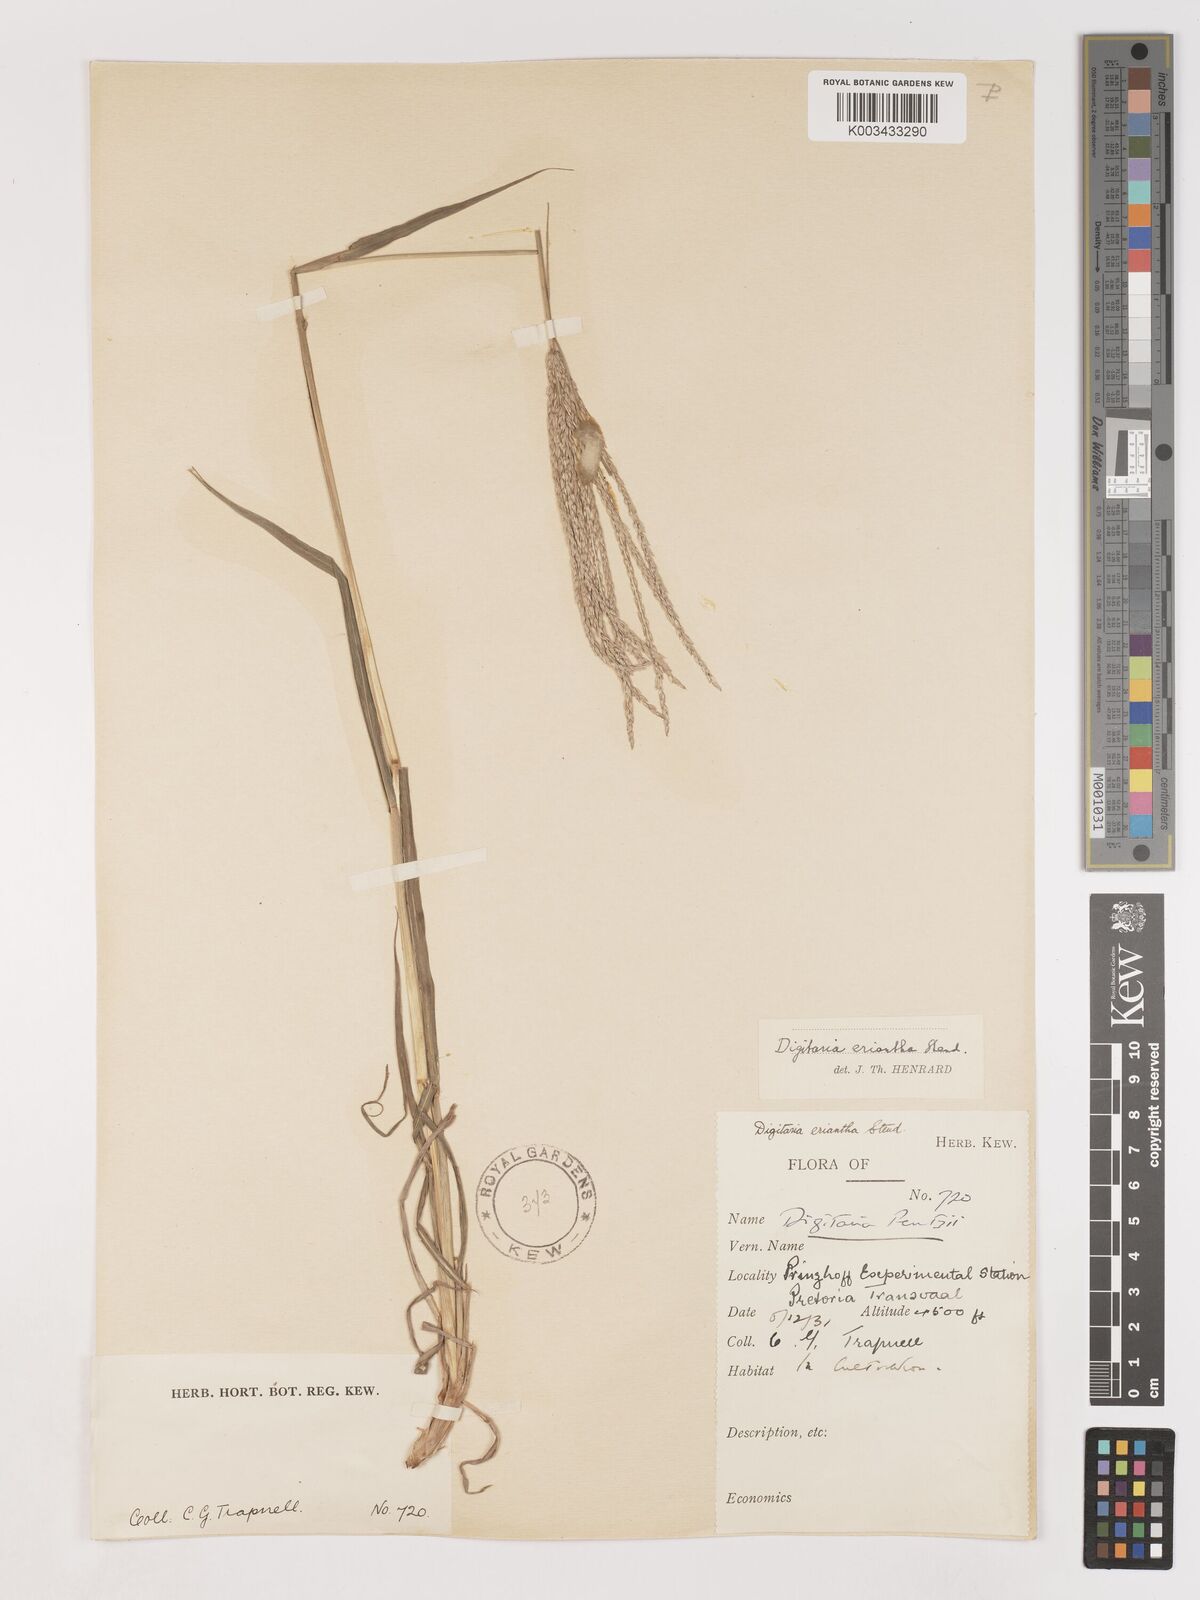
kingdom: Plantae
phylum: Tracheophyta
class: Liliopsida
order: Poales
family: Poaceae
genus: Digitaria
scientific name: Digitaria eriantha
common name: Digitgrass
